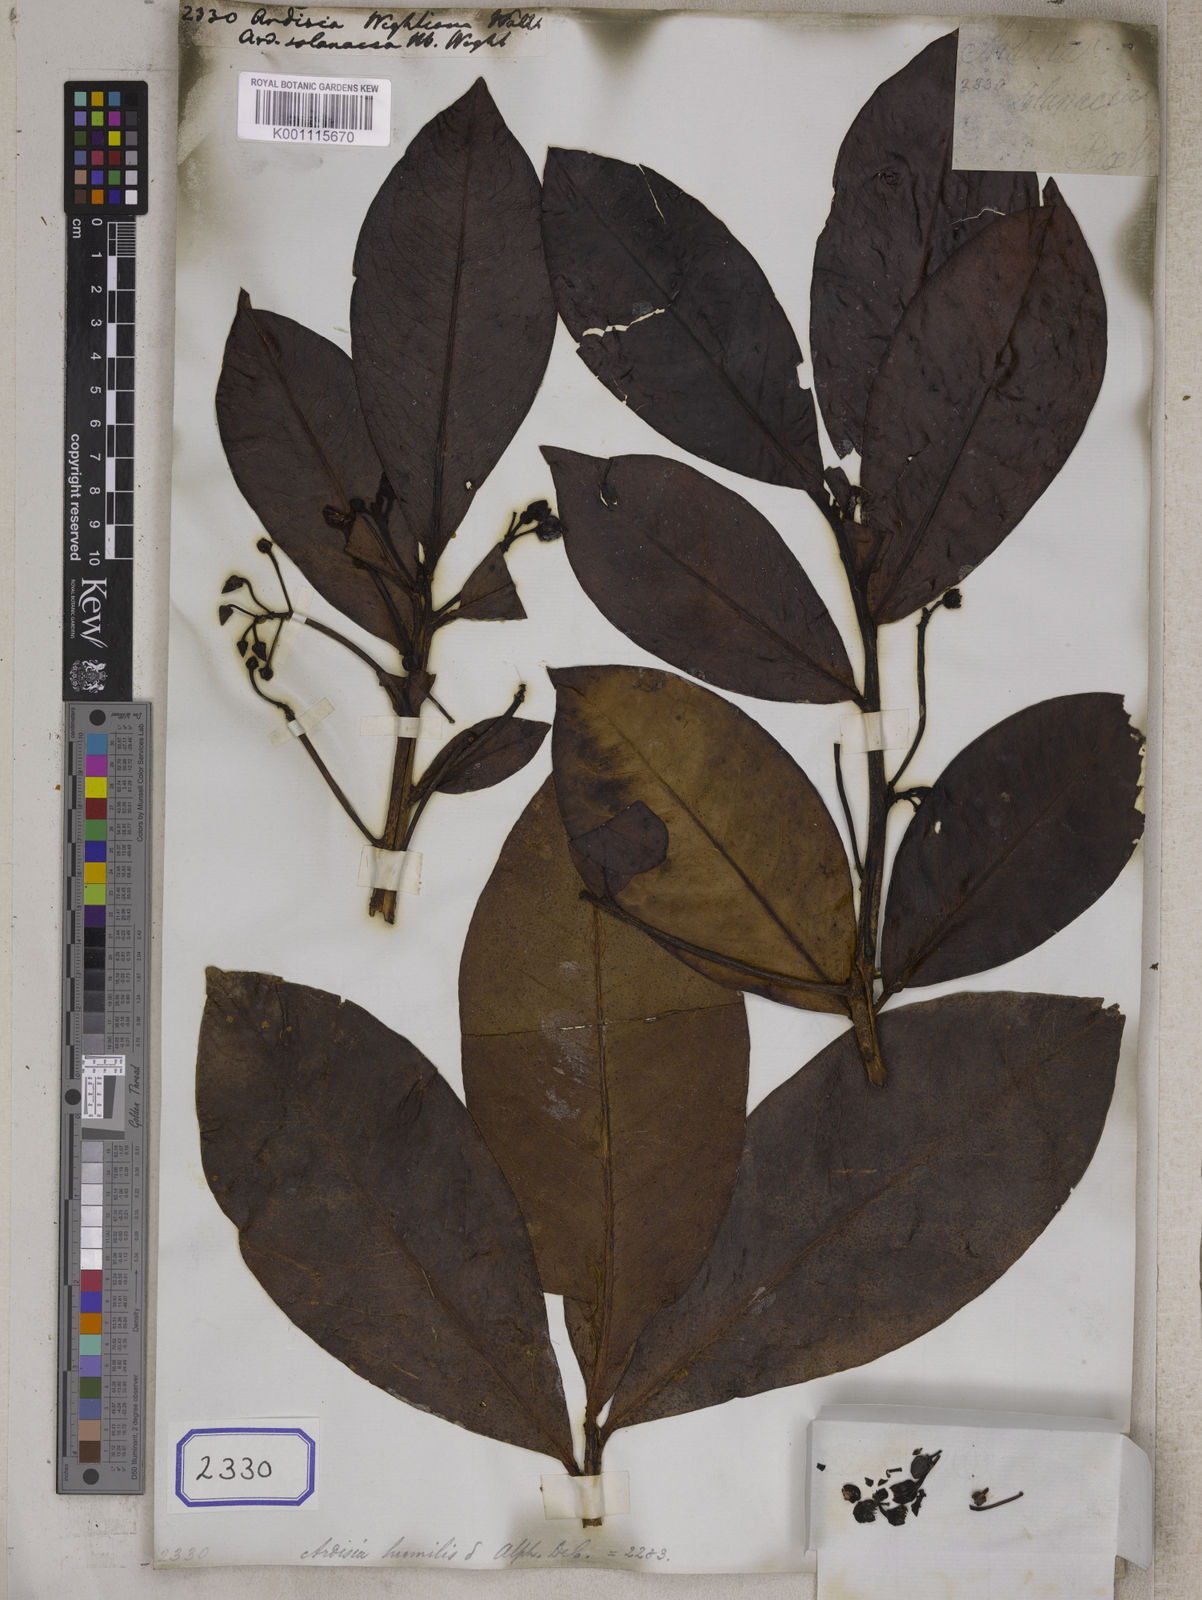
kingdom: Plantae
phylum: Tracheophyta
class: Magnoliopsida
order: Ericales
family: Primulaceae
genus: Ardisia
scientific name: Ardisia
